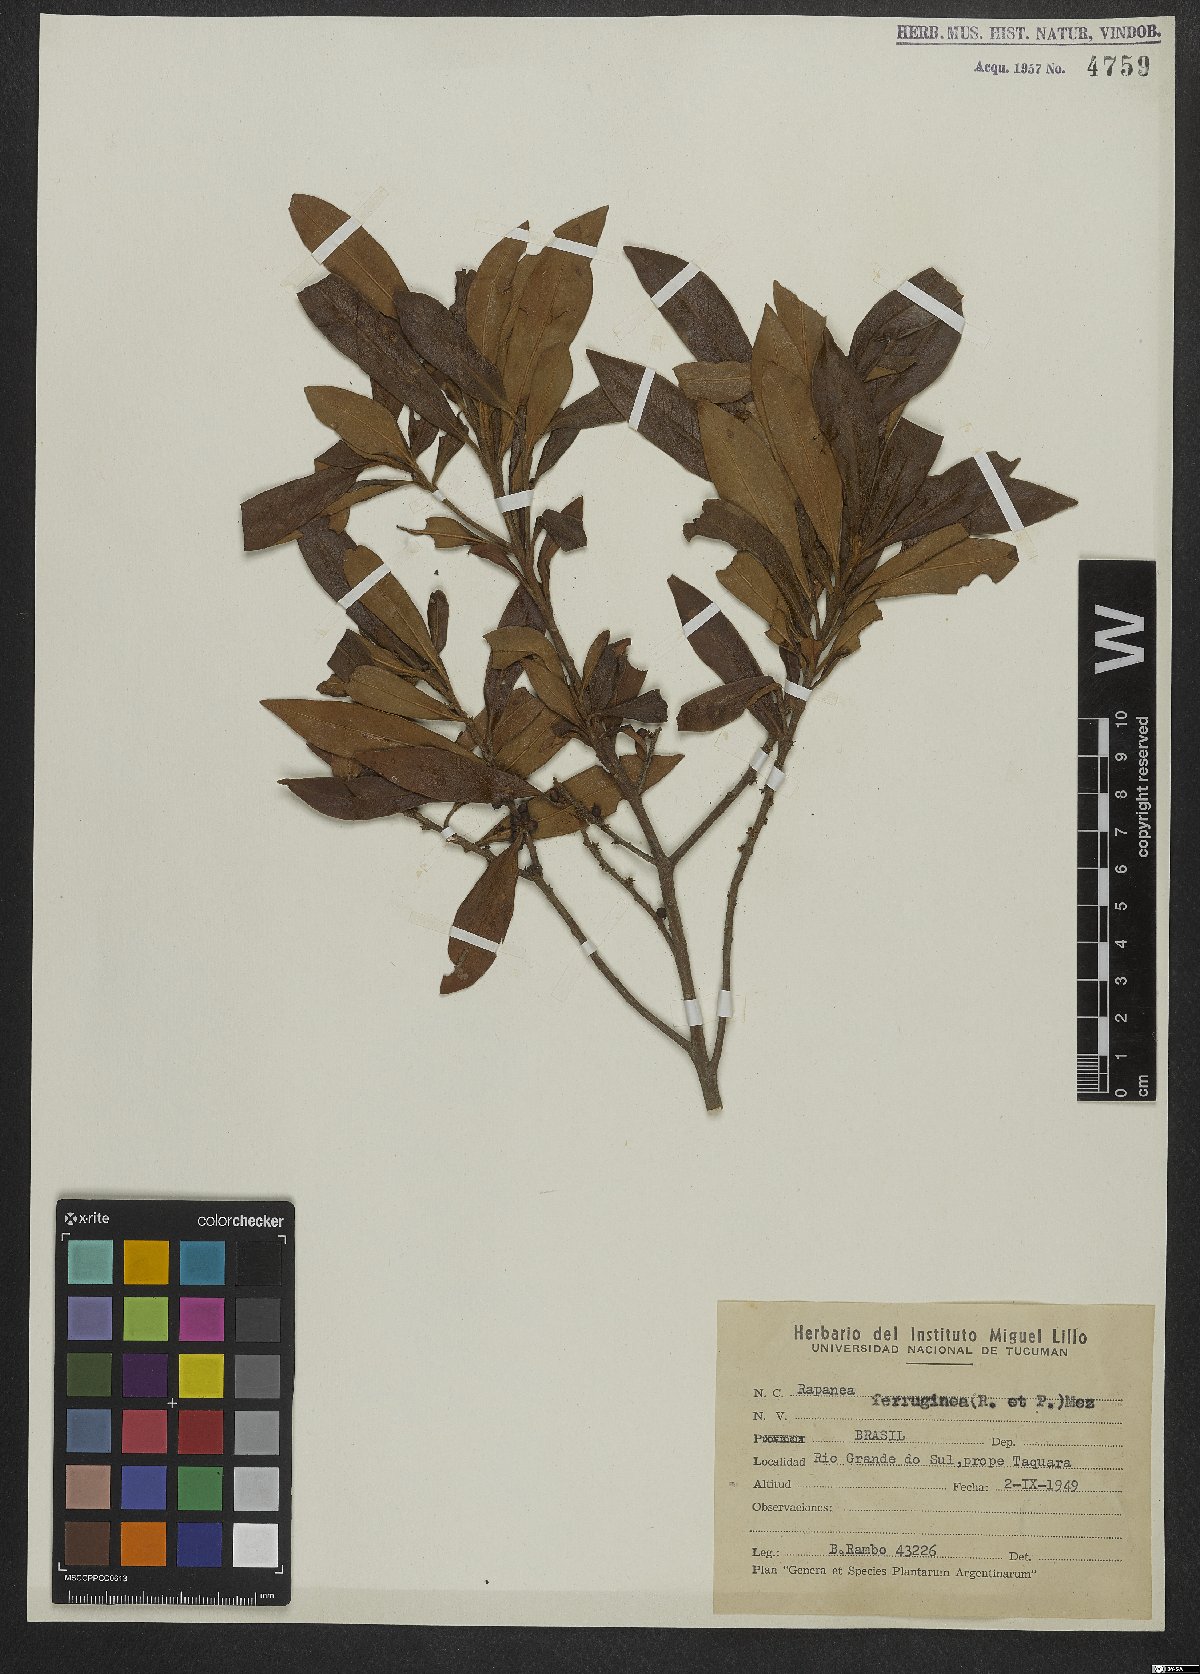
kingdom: Plantae
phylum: Tracheophyta
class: Magnoliopsida
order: Ericales
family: Primulaceae
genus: Myrsine
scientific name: Myrsine coriacea
